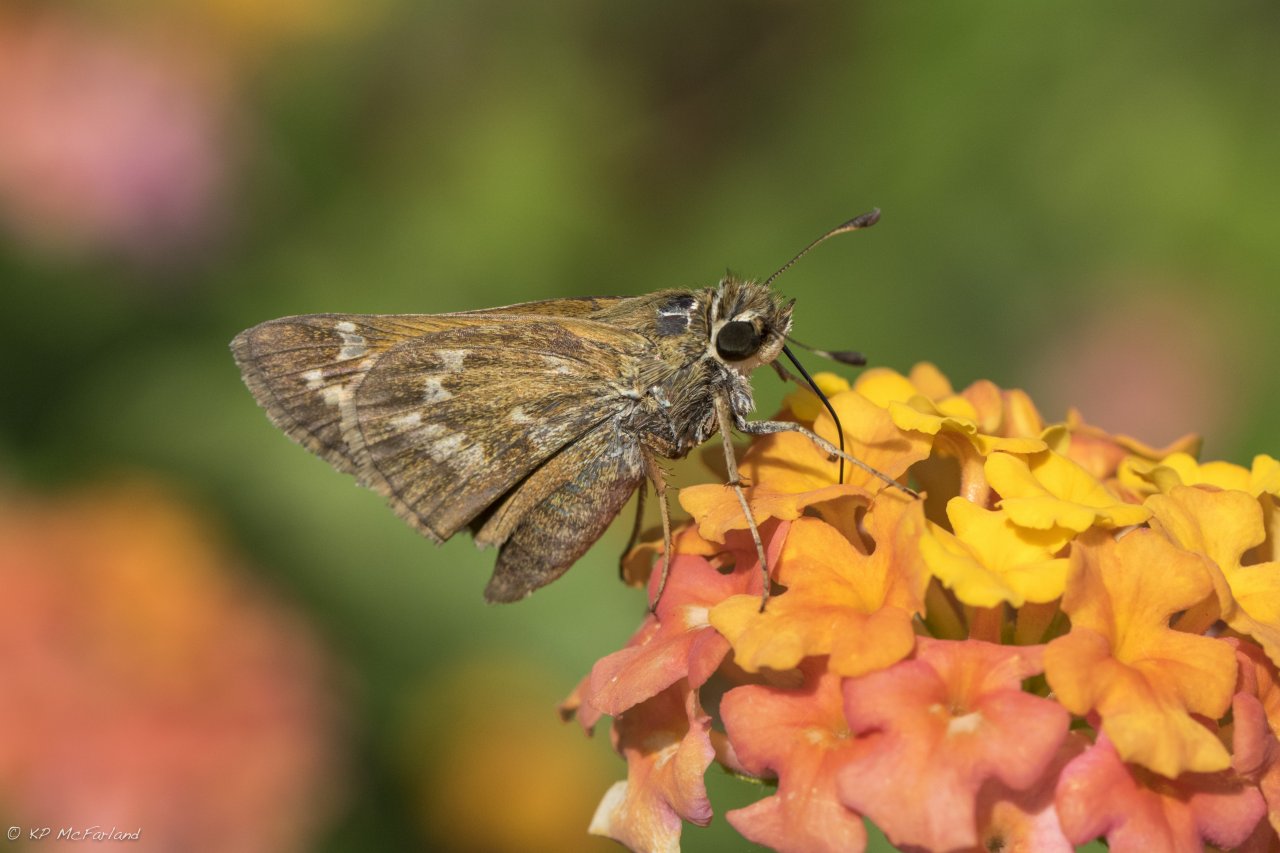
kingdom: Animalia
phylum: Arthropoda
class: Insecta
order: Lepidoptera
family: Hesperiidae
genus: Atalopedes
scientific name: Atalopedes campestris
